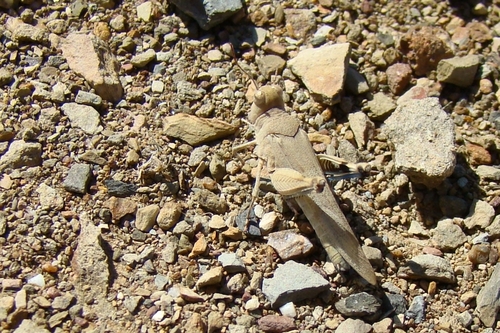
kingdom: Animalia
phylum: Arthropoda
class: Insecta
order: Orthoptera
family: Acrididae
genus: Oedipoda
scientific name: Oedipoda caerulescens
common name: Blue-winged grasshopper
